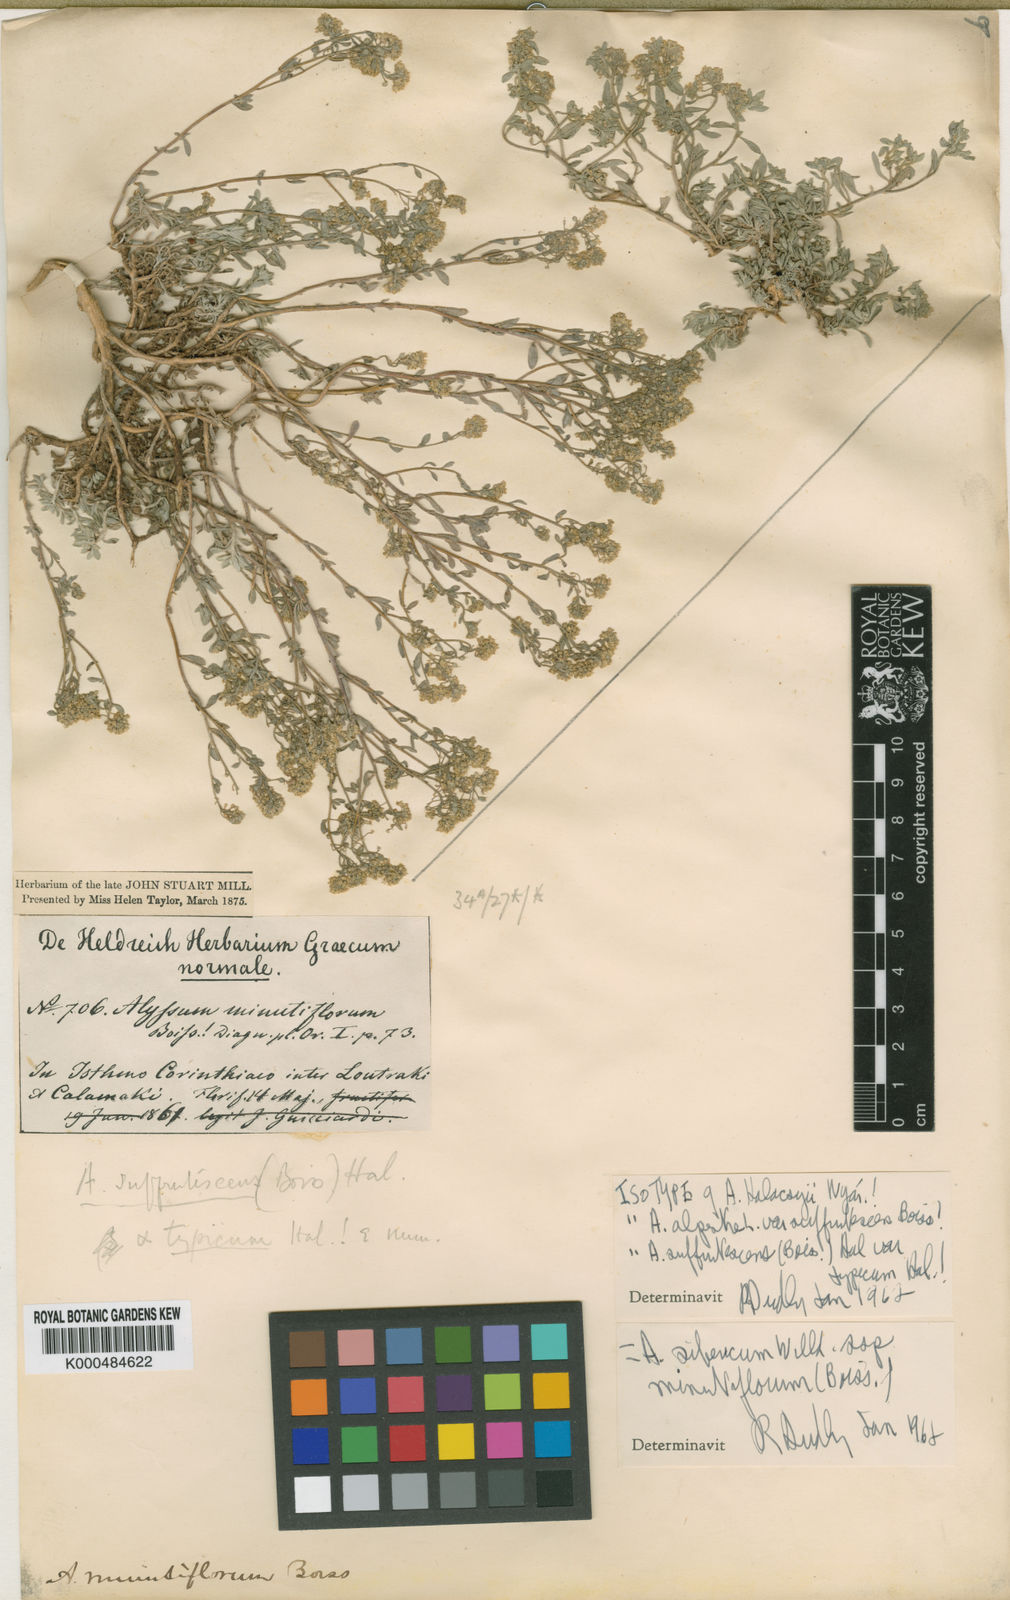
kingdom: Plantae
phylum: Tracheophyta
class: Magnoliopsida
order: Brassicales
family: Brassicaceae
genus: Odontarrhena
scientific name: Odontarrhena sibirica
